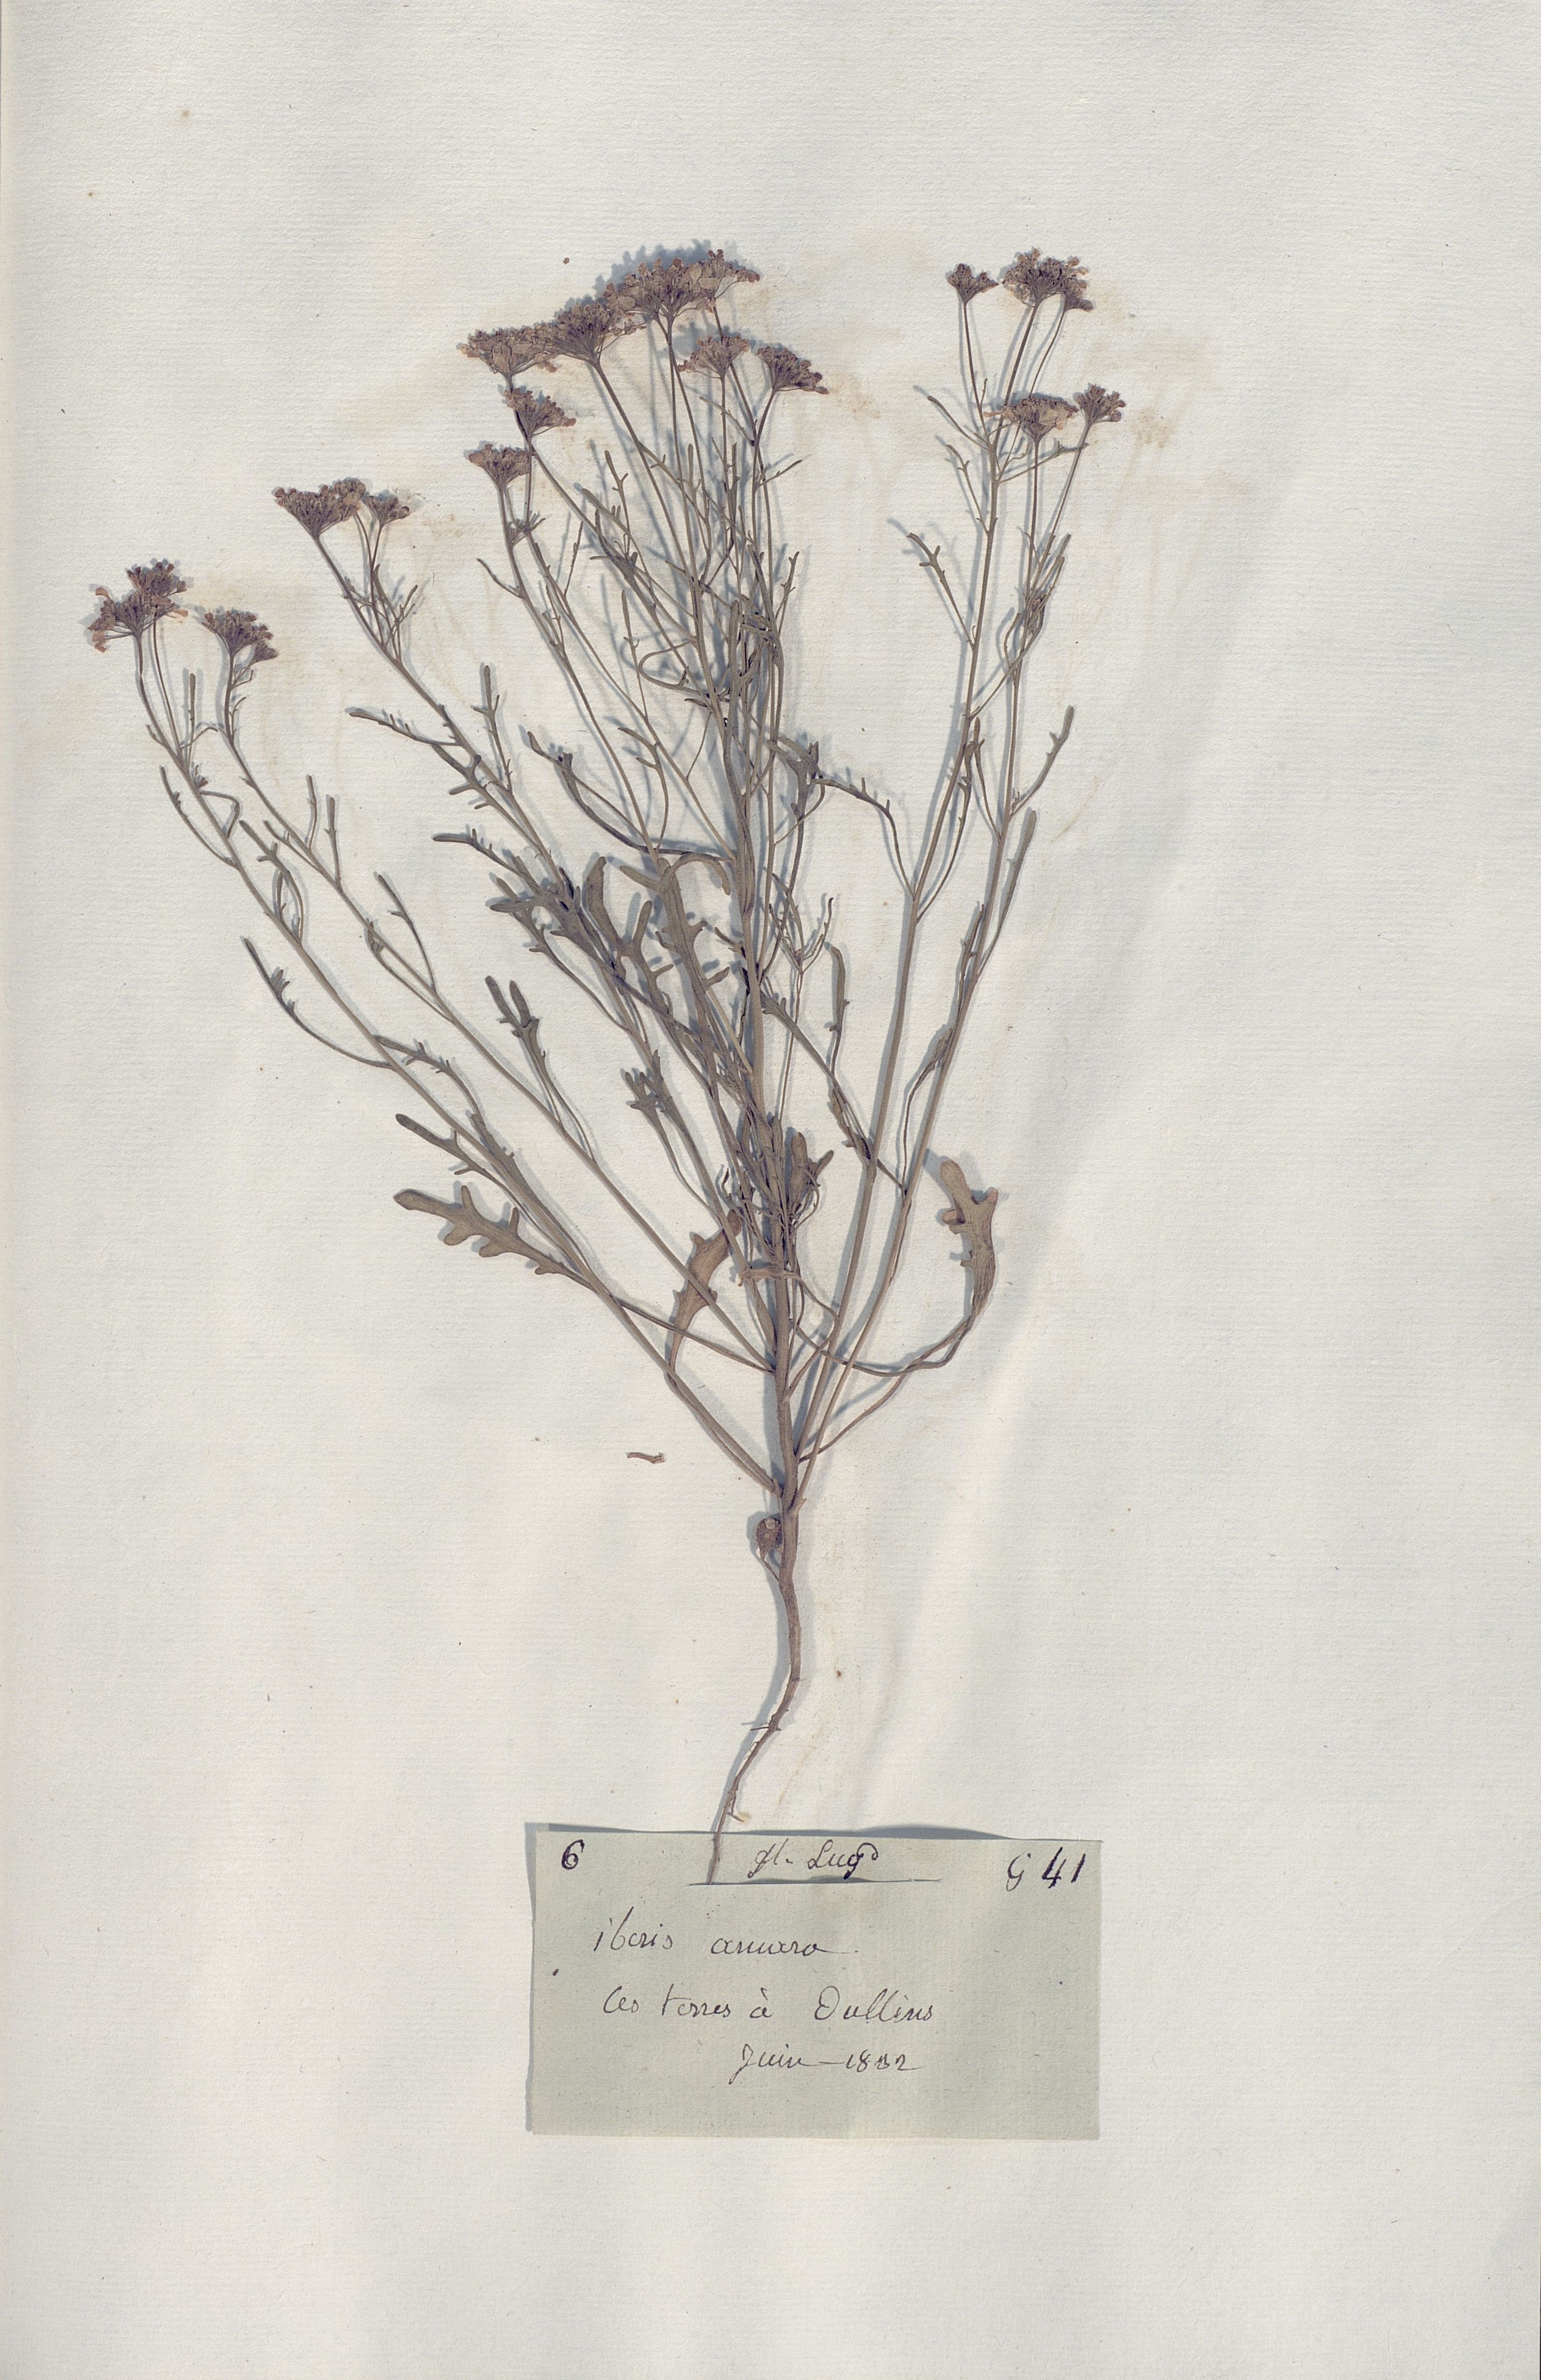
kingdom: Plantae
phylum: Tracheophyta
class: Magnoliopsida
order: Brassicales
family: Brassicaceae
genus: Iberis
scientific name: Iberis amara
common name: Annual candytuft
